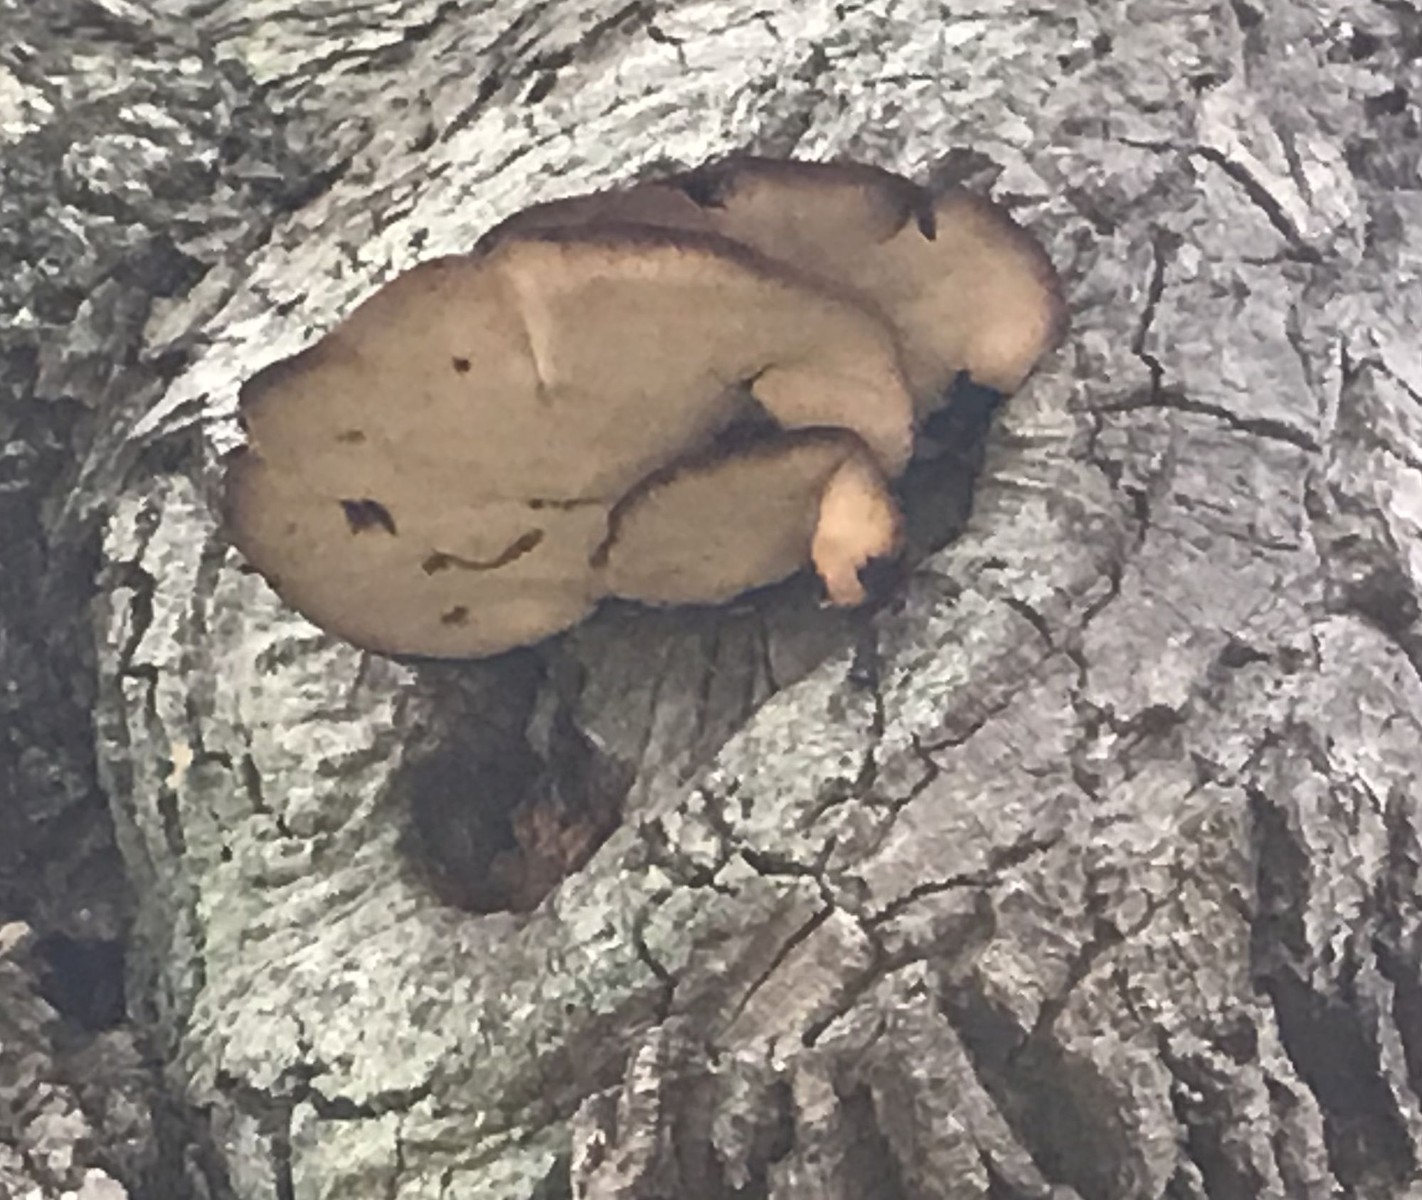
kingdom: Fungi
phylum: Basidiomycota
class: Agaricomycetes
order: Agaricales
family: Fistulinaceae
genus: Fistulina
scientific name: Fistulina hepatica
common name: oksetunge
